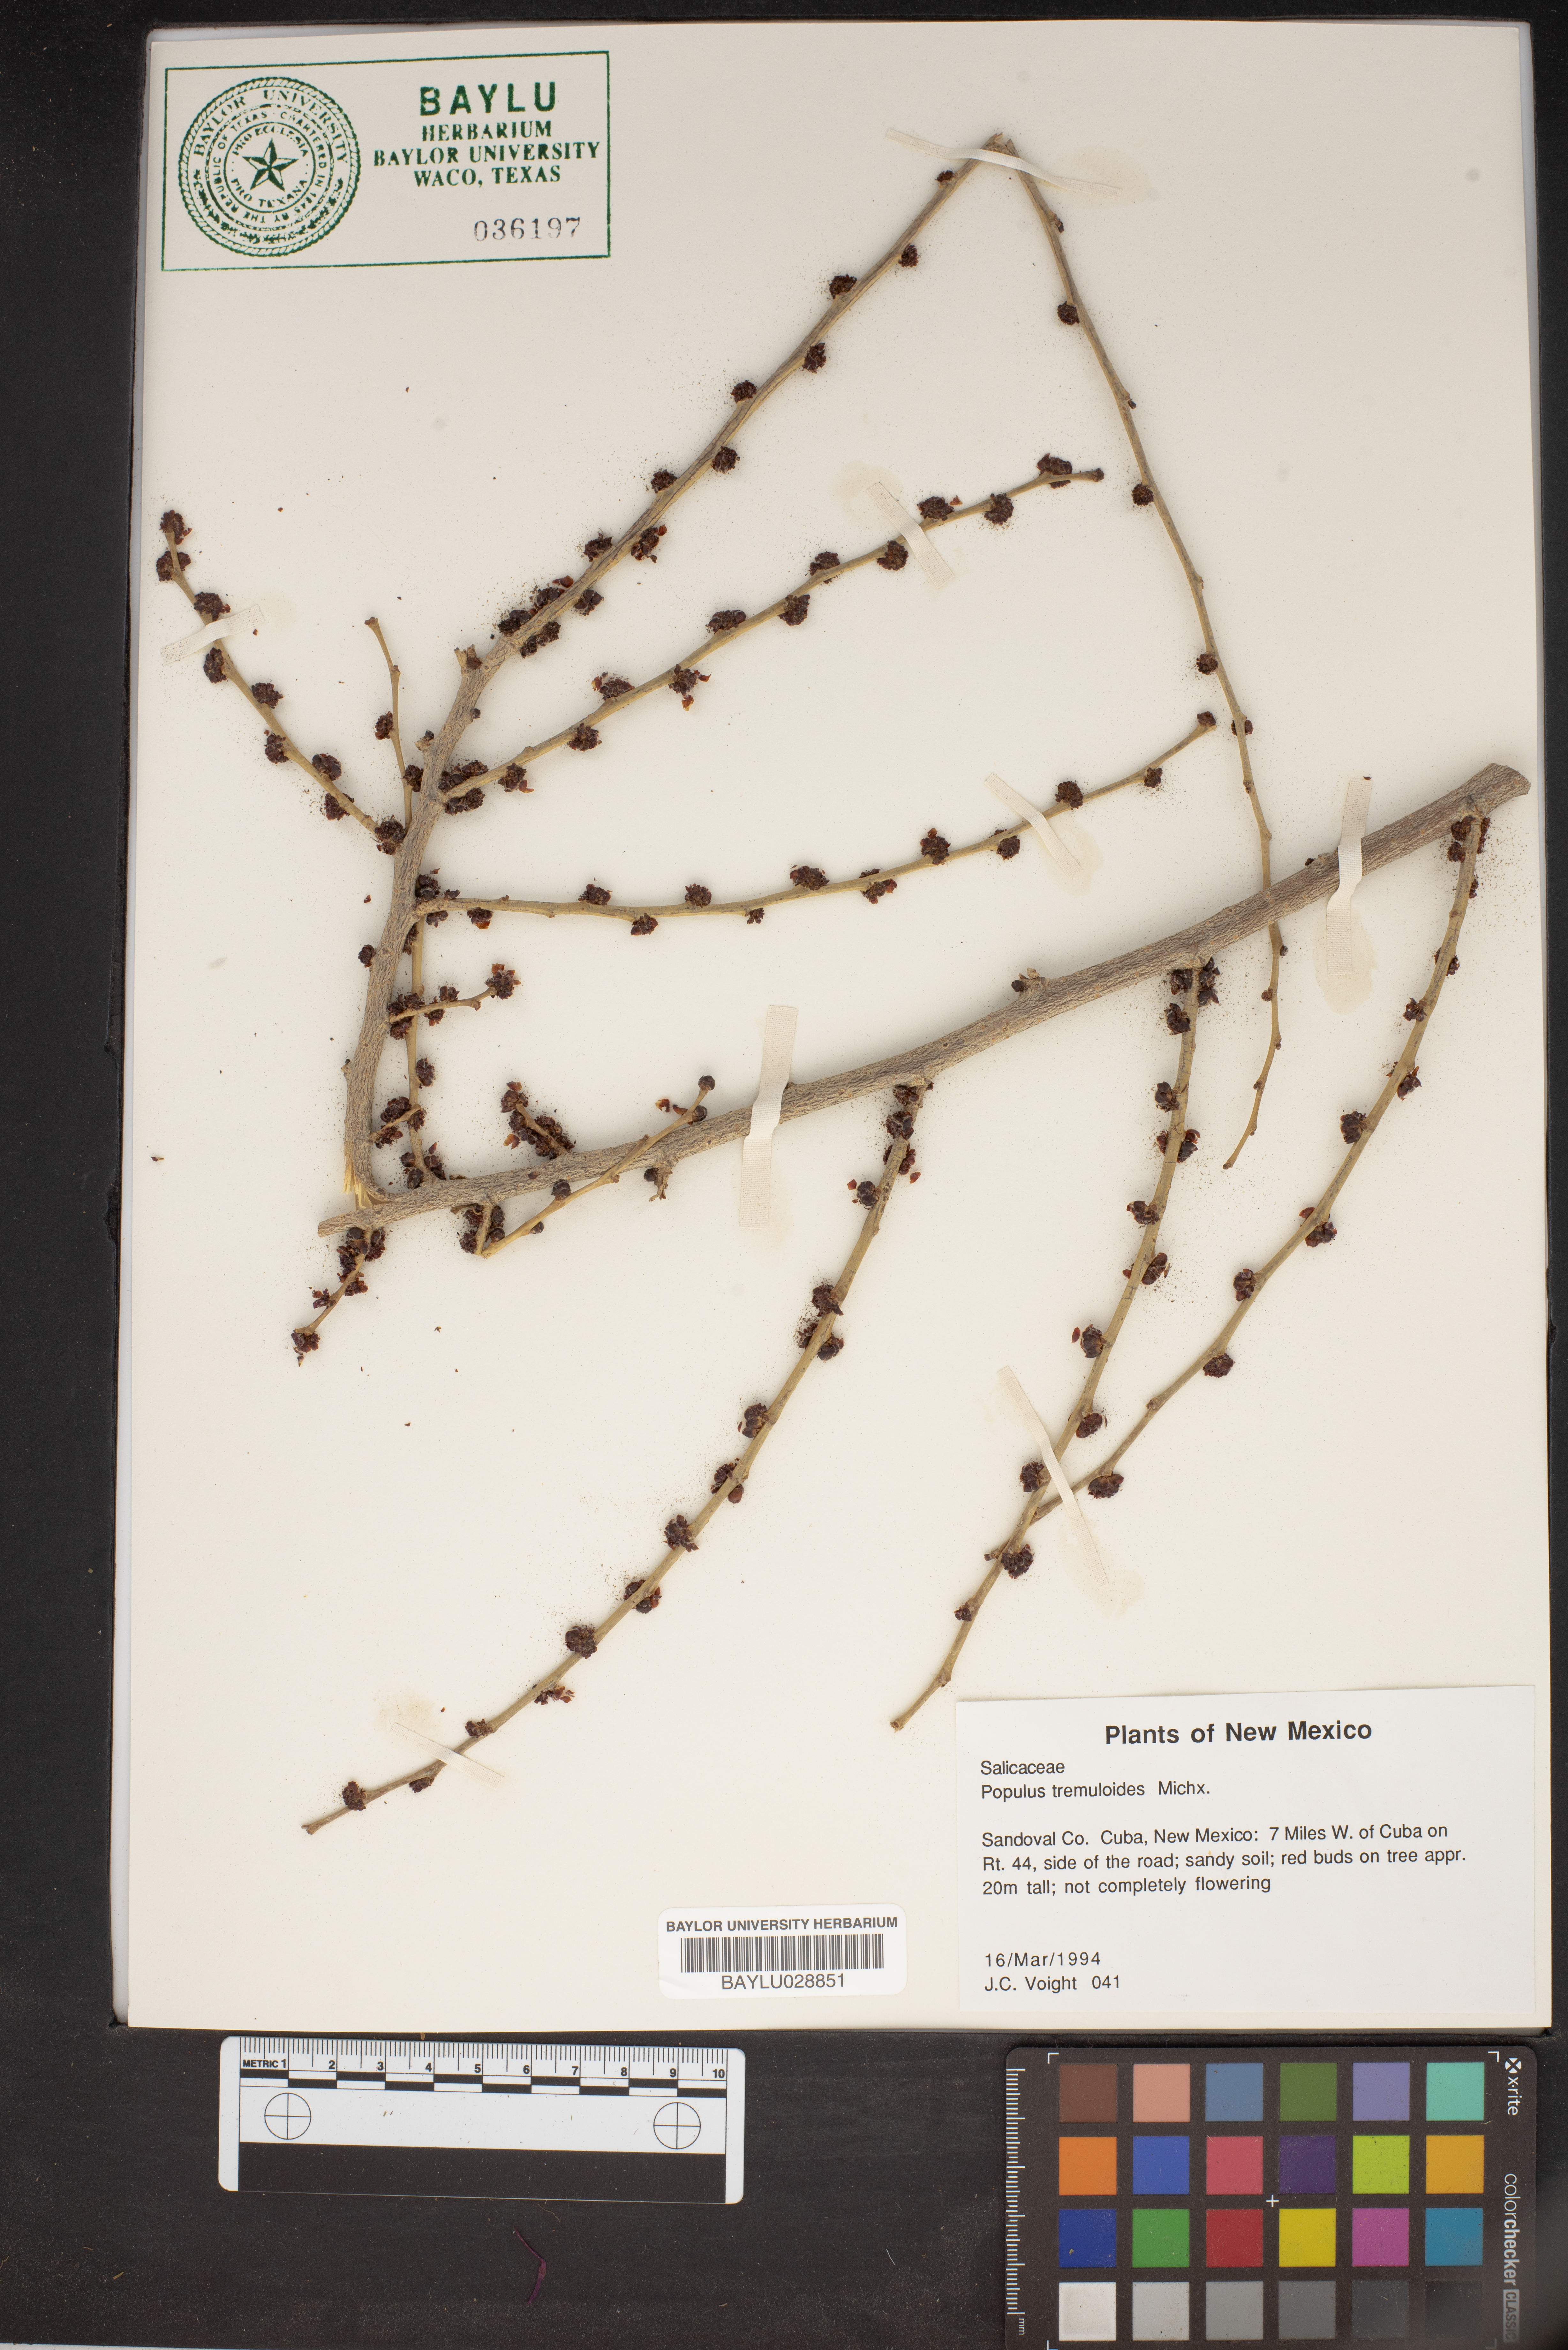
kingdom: Plantae
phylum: Tracheophyta
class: Magnoliopsida
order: Malpighiales
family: Salicaceae
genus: Populus
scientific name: Populus tremuloides
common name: Quaking aspen
